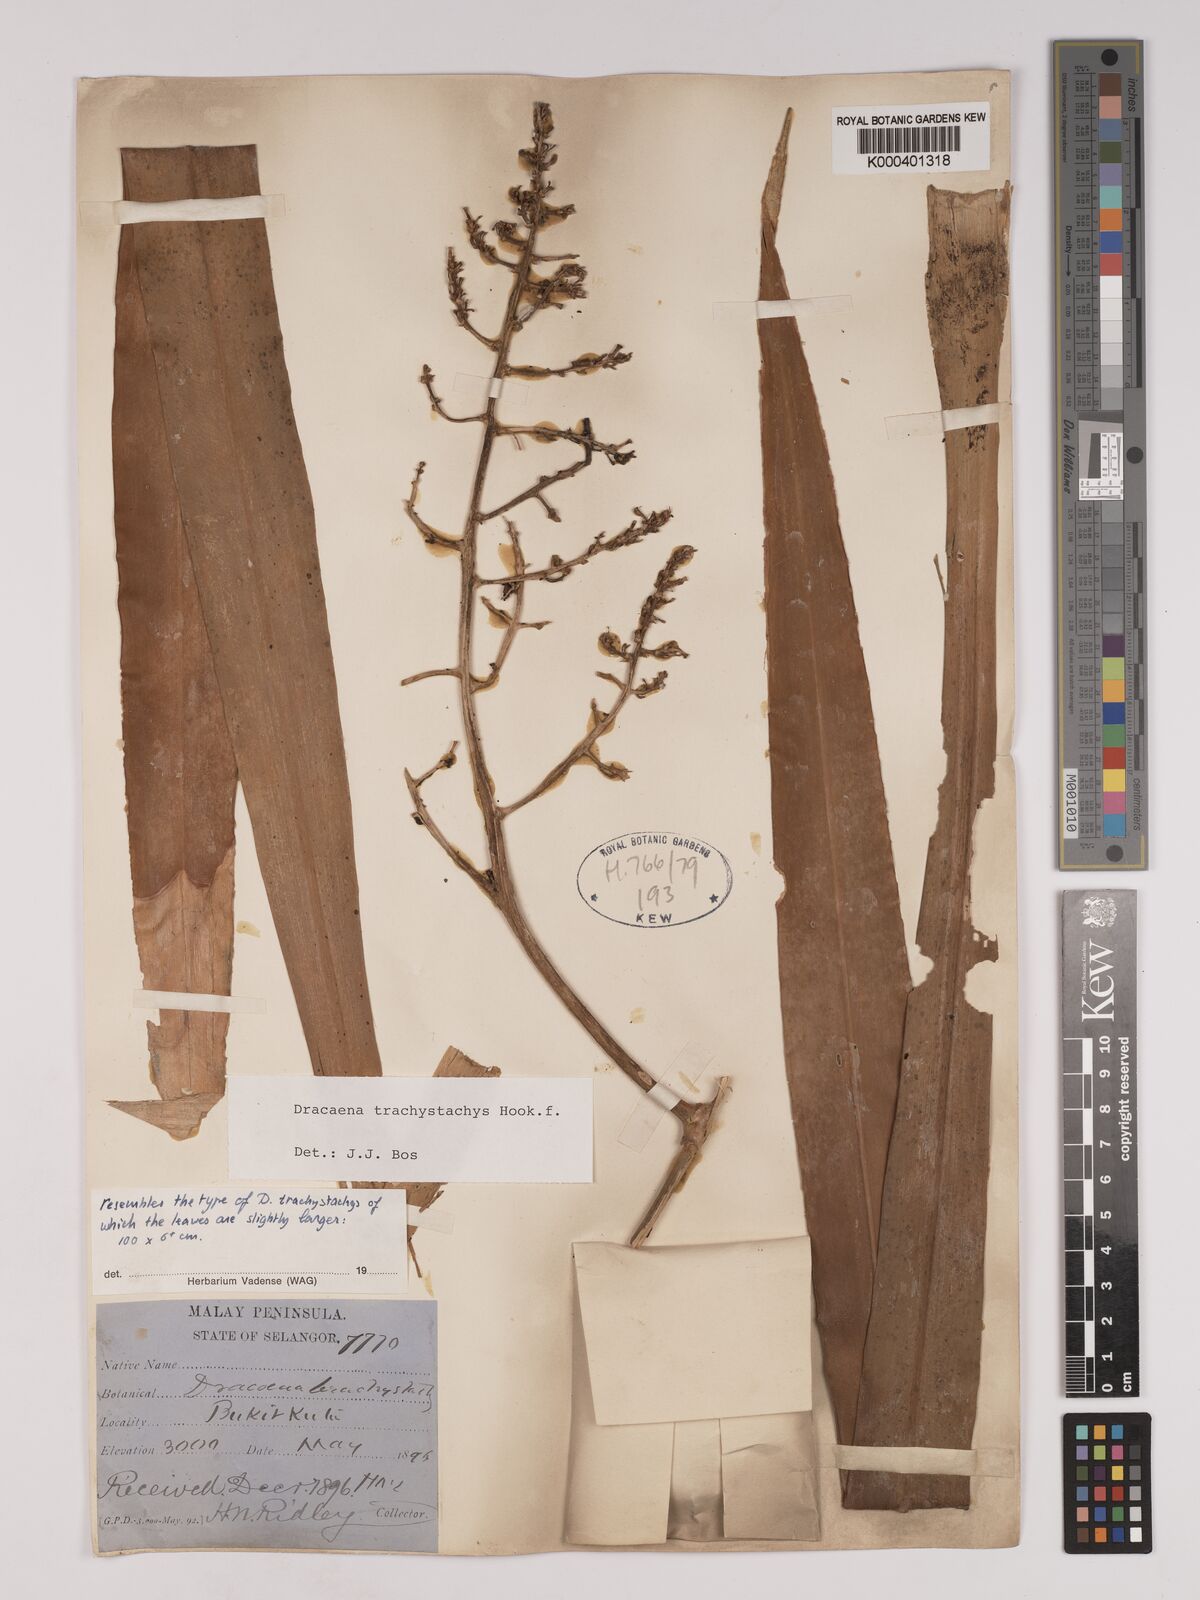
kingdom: Plantae
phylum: Tracheophyta
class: Liliopsida
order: Asparagales
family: Asparagaceae
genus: Dracaena
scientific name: Dracaena brachystachys
